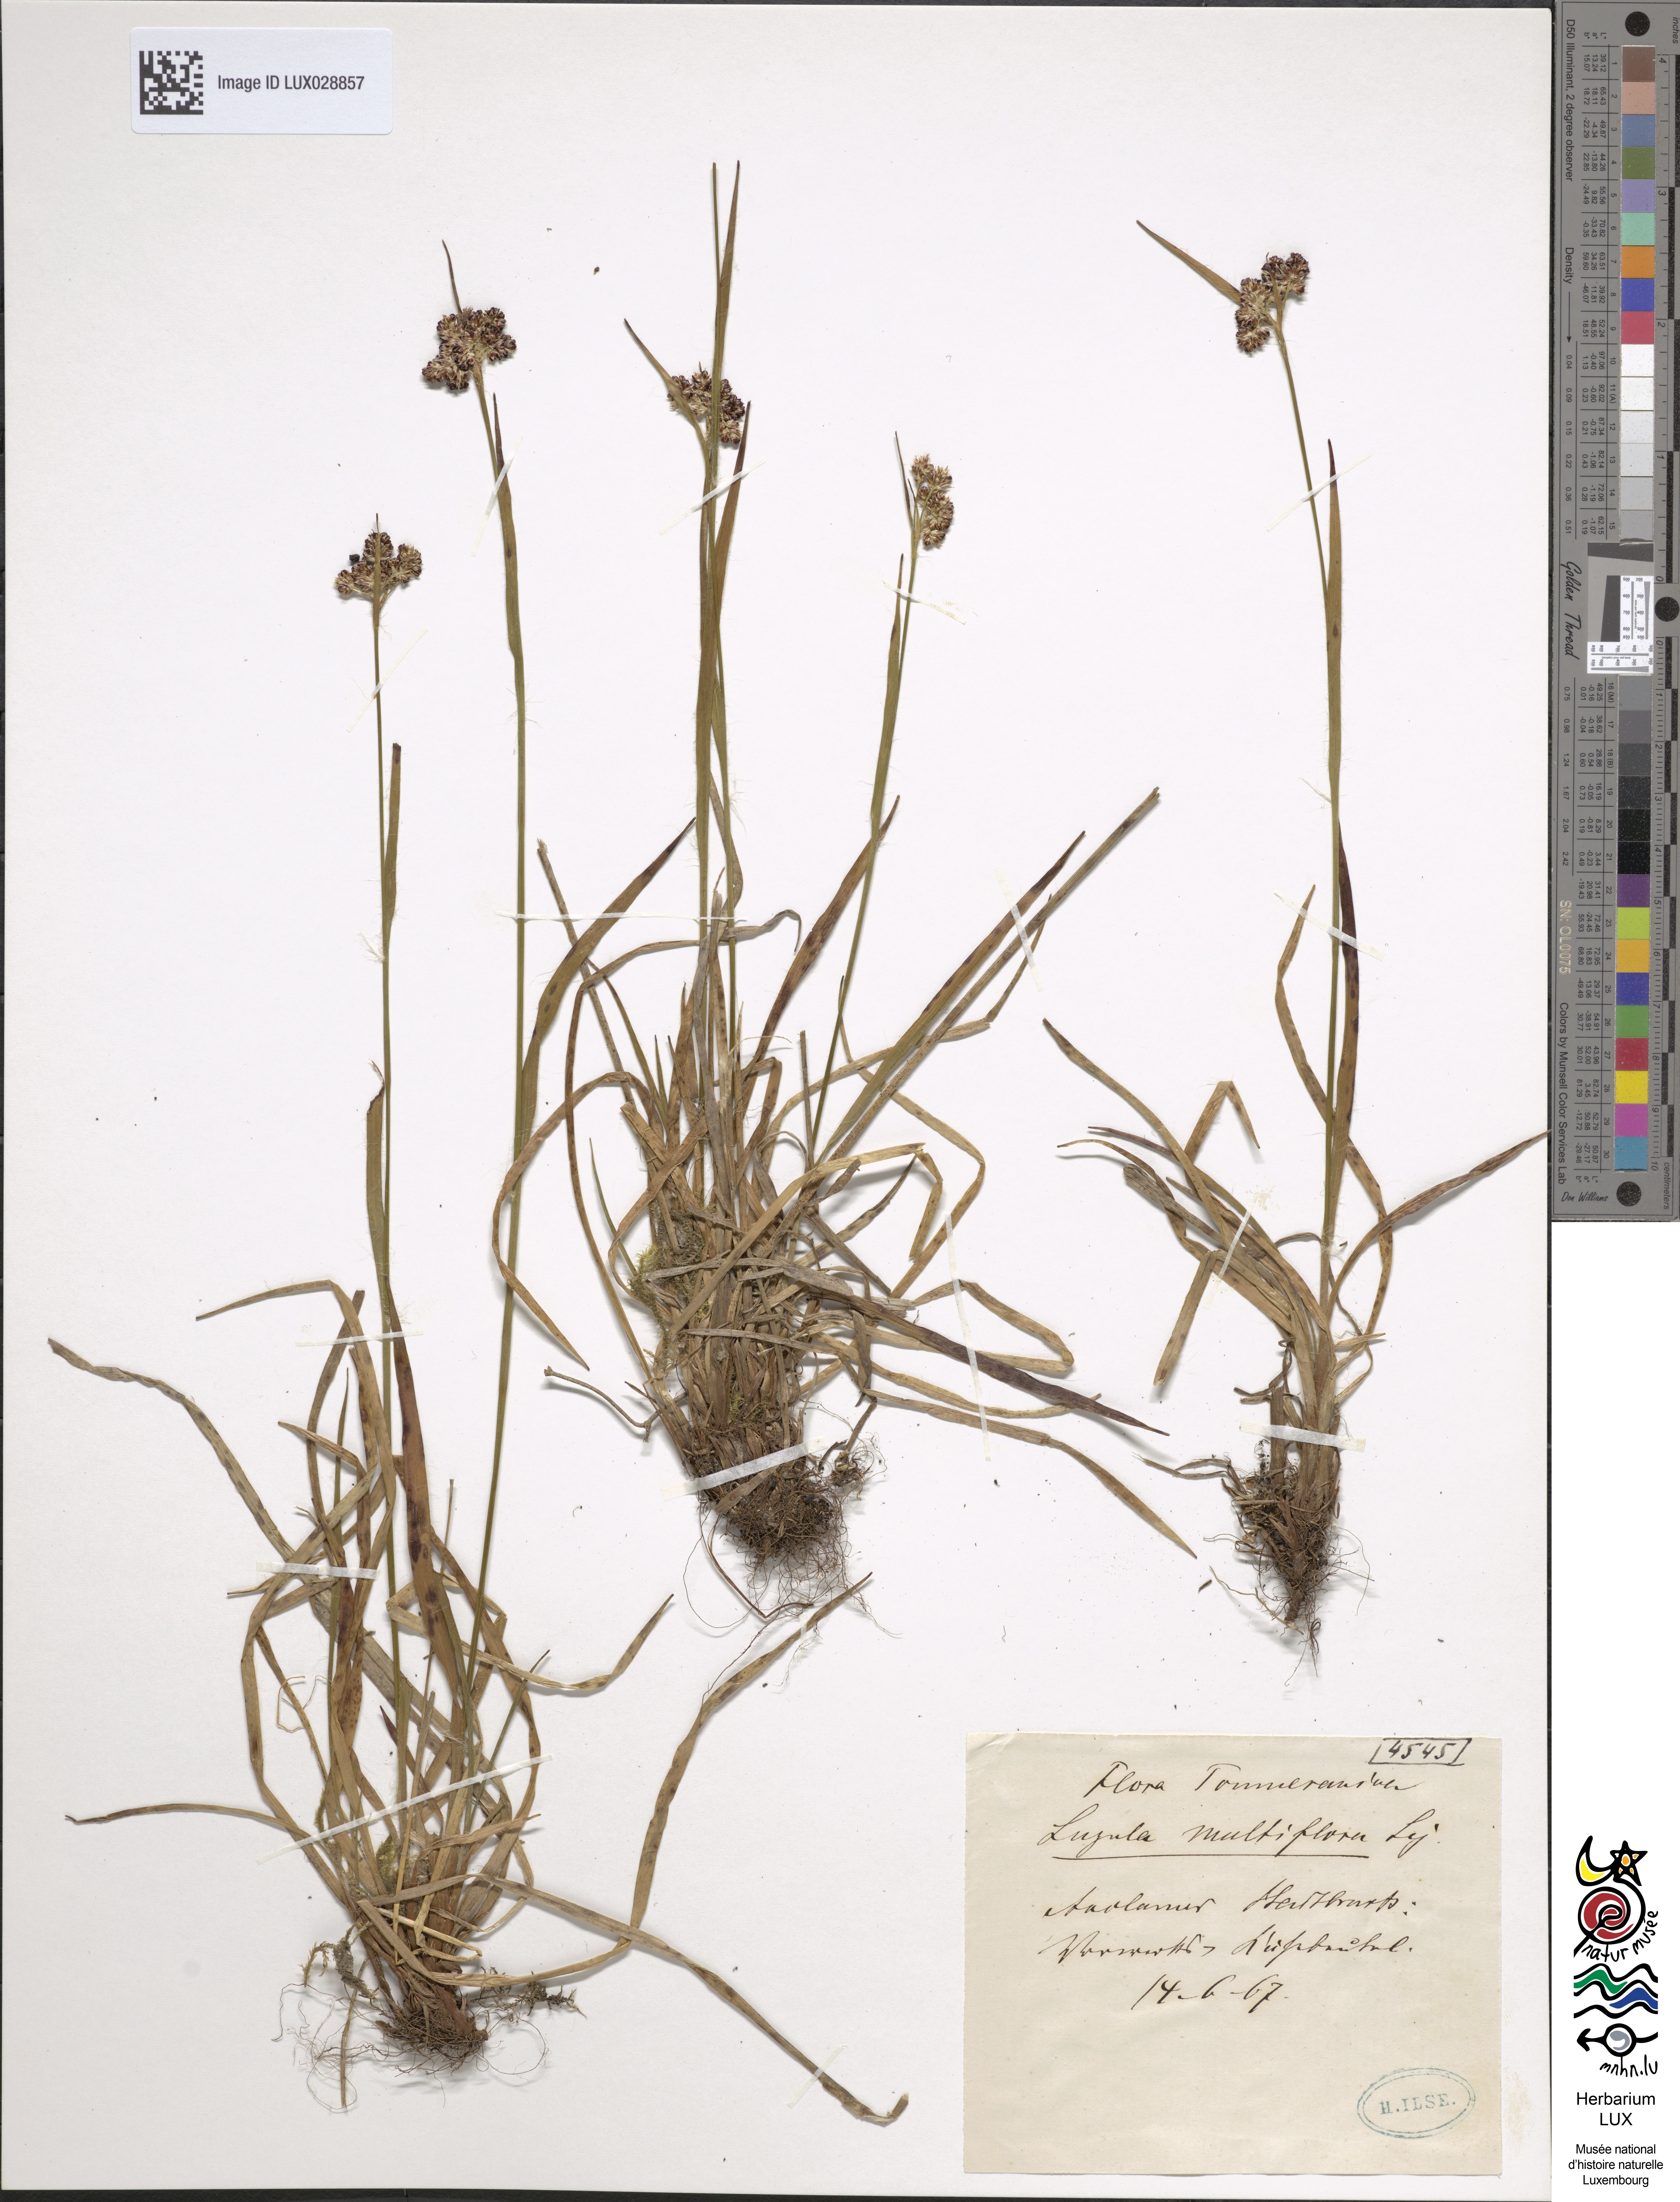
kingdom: Plantae
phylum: Tracheophyta
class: Liliopsida
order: Poales
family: Juncaceae
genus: Luzula
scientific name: Luzula multiflora
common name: Heath wood-rush
